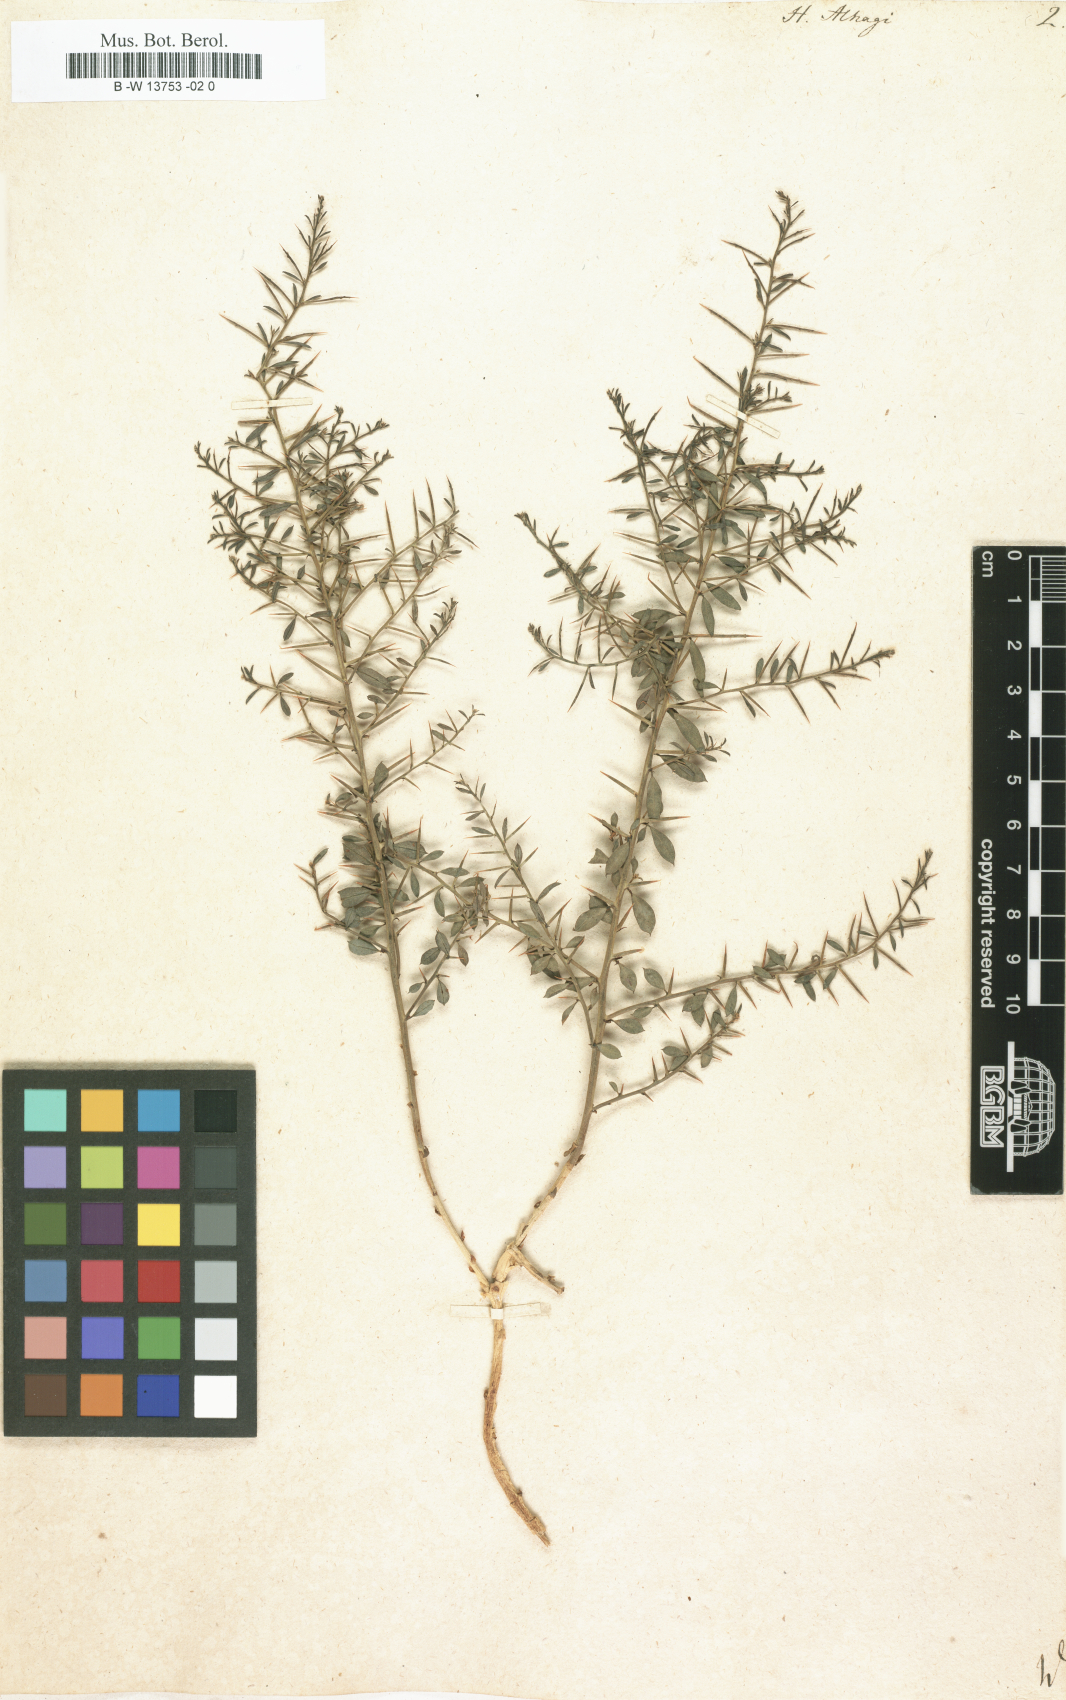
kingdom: Plantae
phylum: Tracheophyta
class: Magnoliopsida
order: Fabales
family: Fabaceae
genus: Alhagi
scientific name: Alhagi maurorum
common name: Camelthorn
